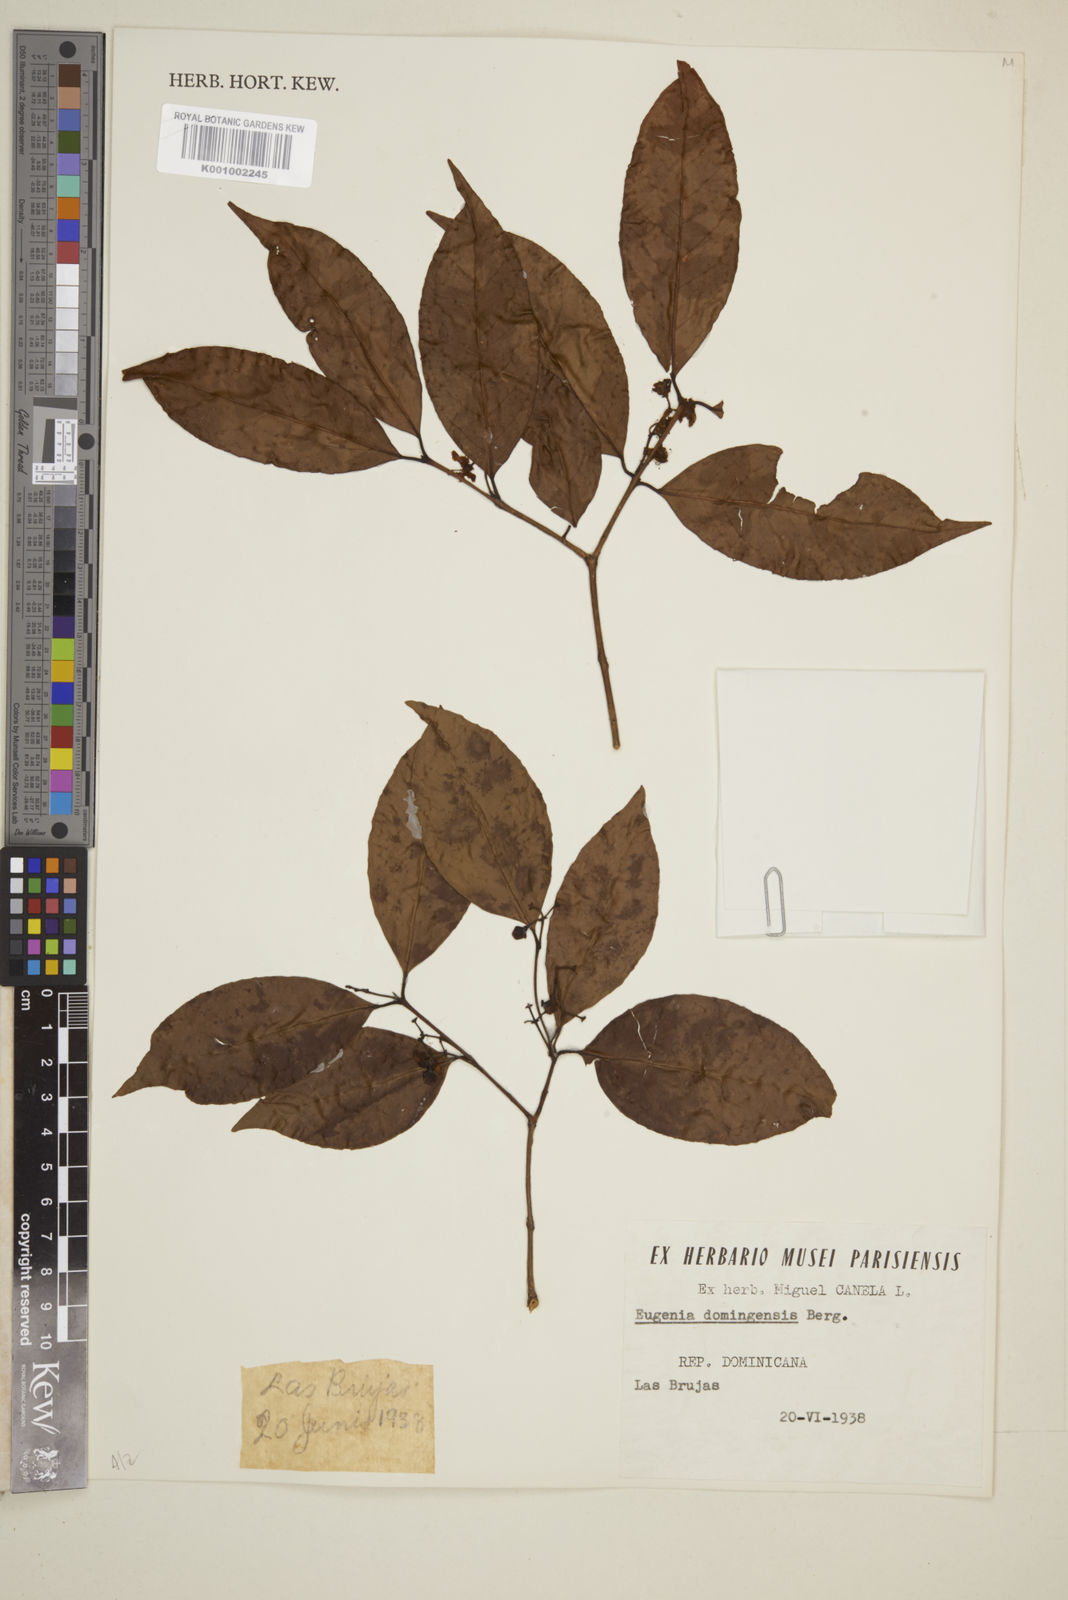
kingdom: Plantae
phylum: Tracheophyta
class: Magnoliopsida
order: Myrtales
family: Myrtaceae
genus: Eugenia
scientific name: Eugenia domingensis
